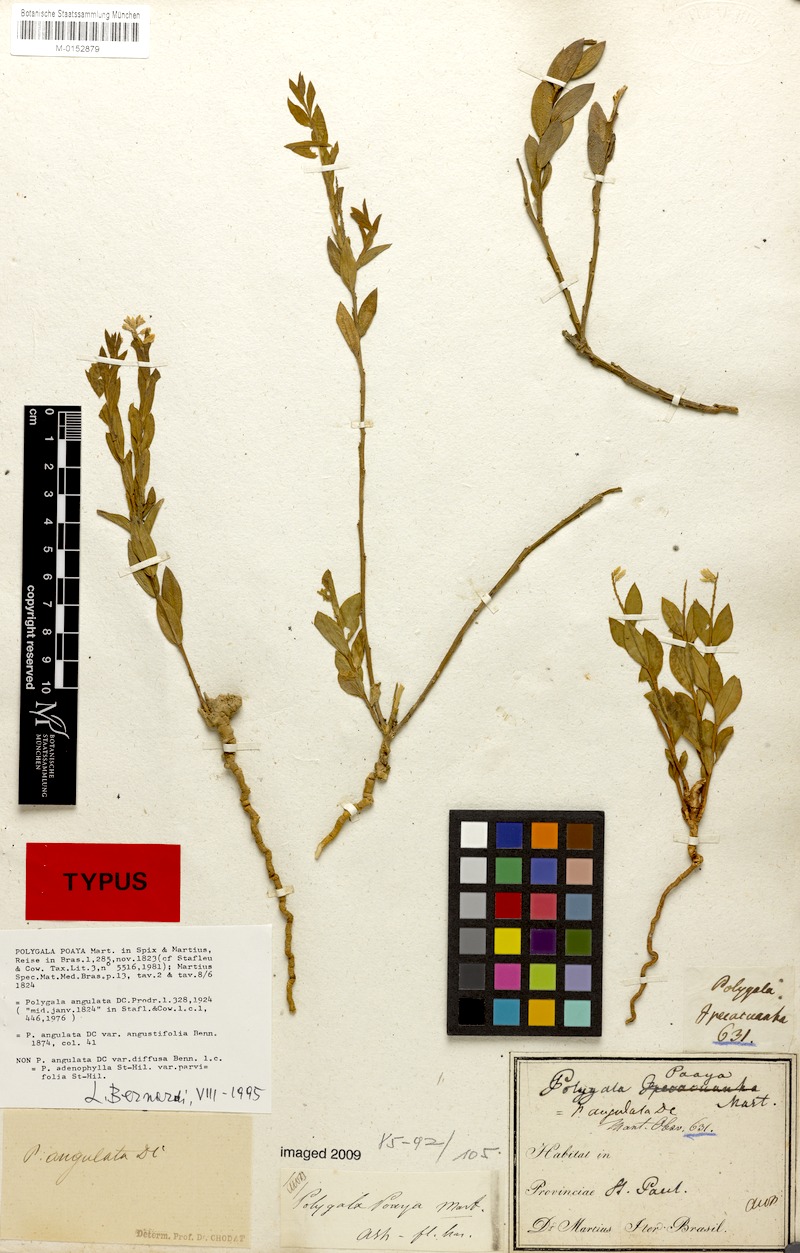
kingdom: Plantae
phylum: Tracheophyta
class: Magnoliopsida
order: Fabales
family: Polygalaceae
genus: Polygala
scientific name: Polygala poaya
